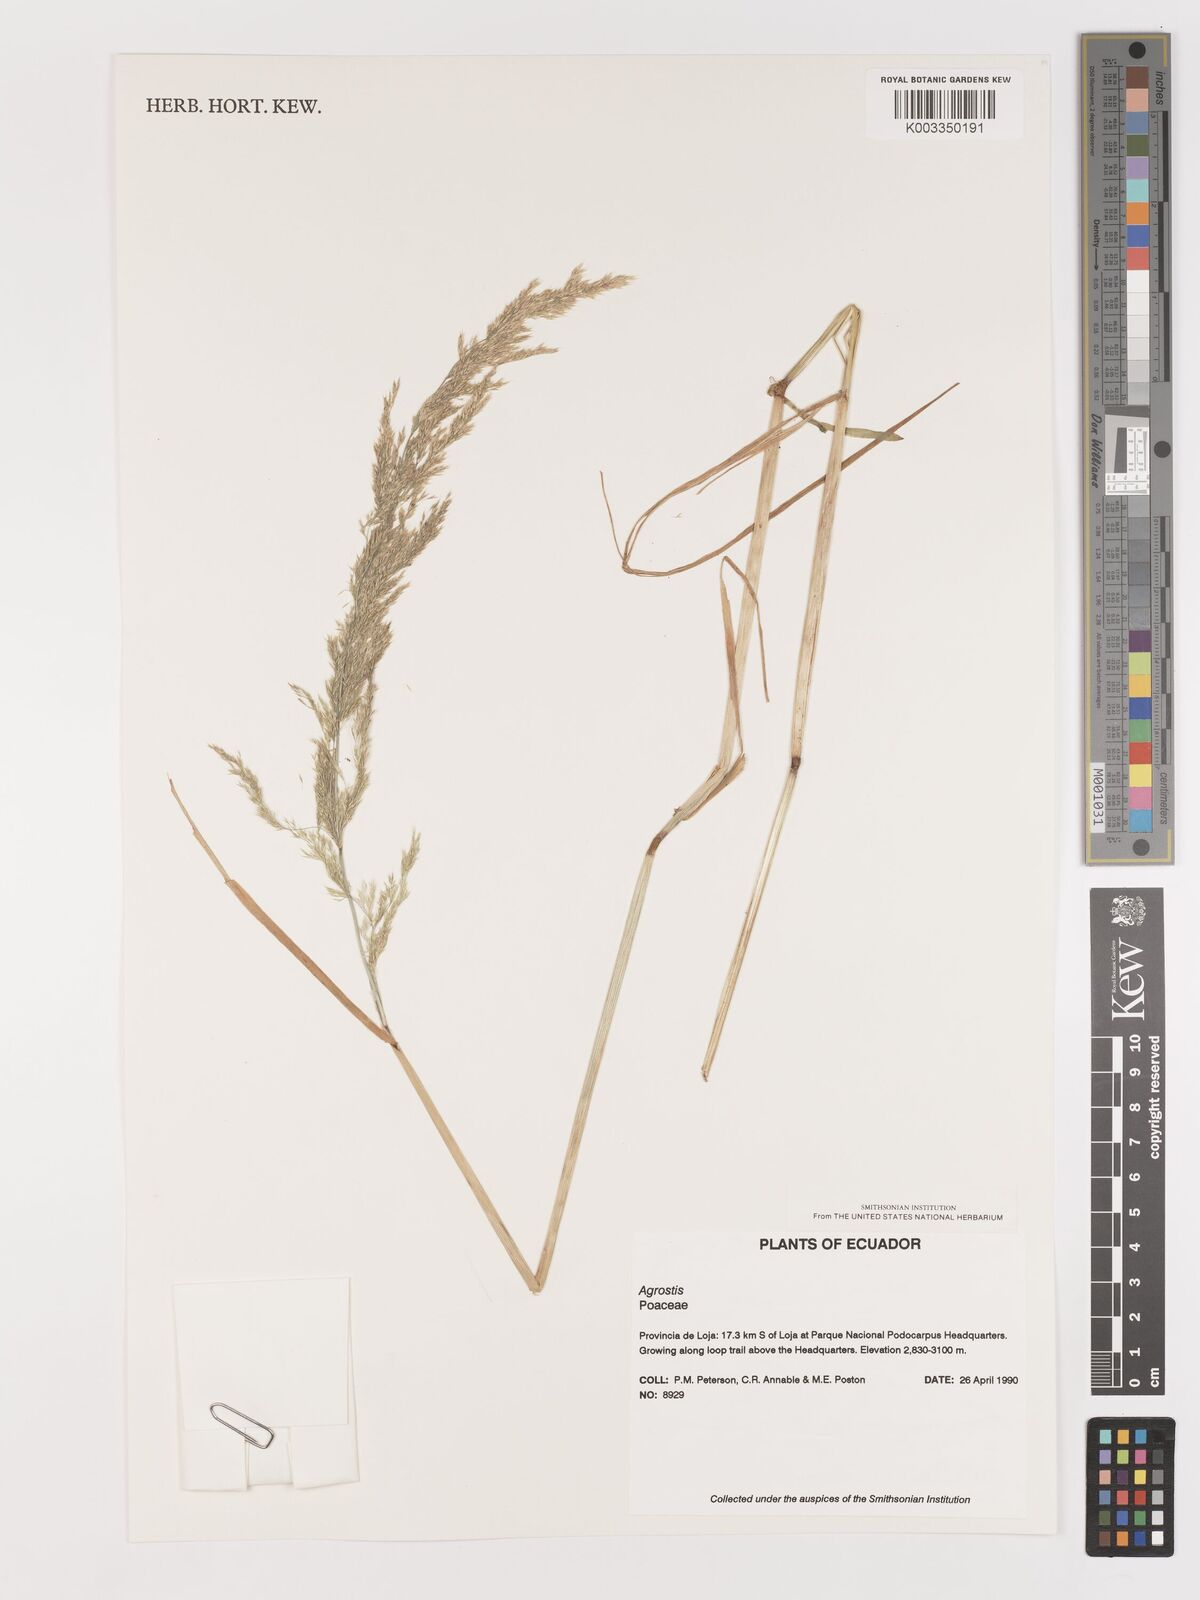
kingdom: Plantae
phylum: Tracheophyta
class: Liliopsida
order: Poales
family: Poaceae
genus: Agrostis
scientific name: Agrostis
